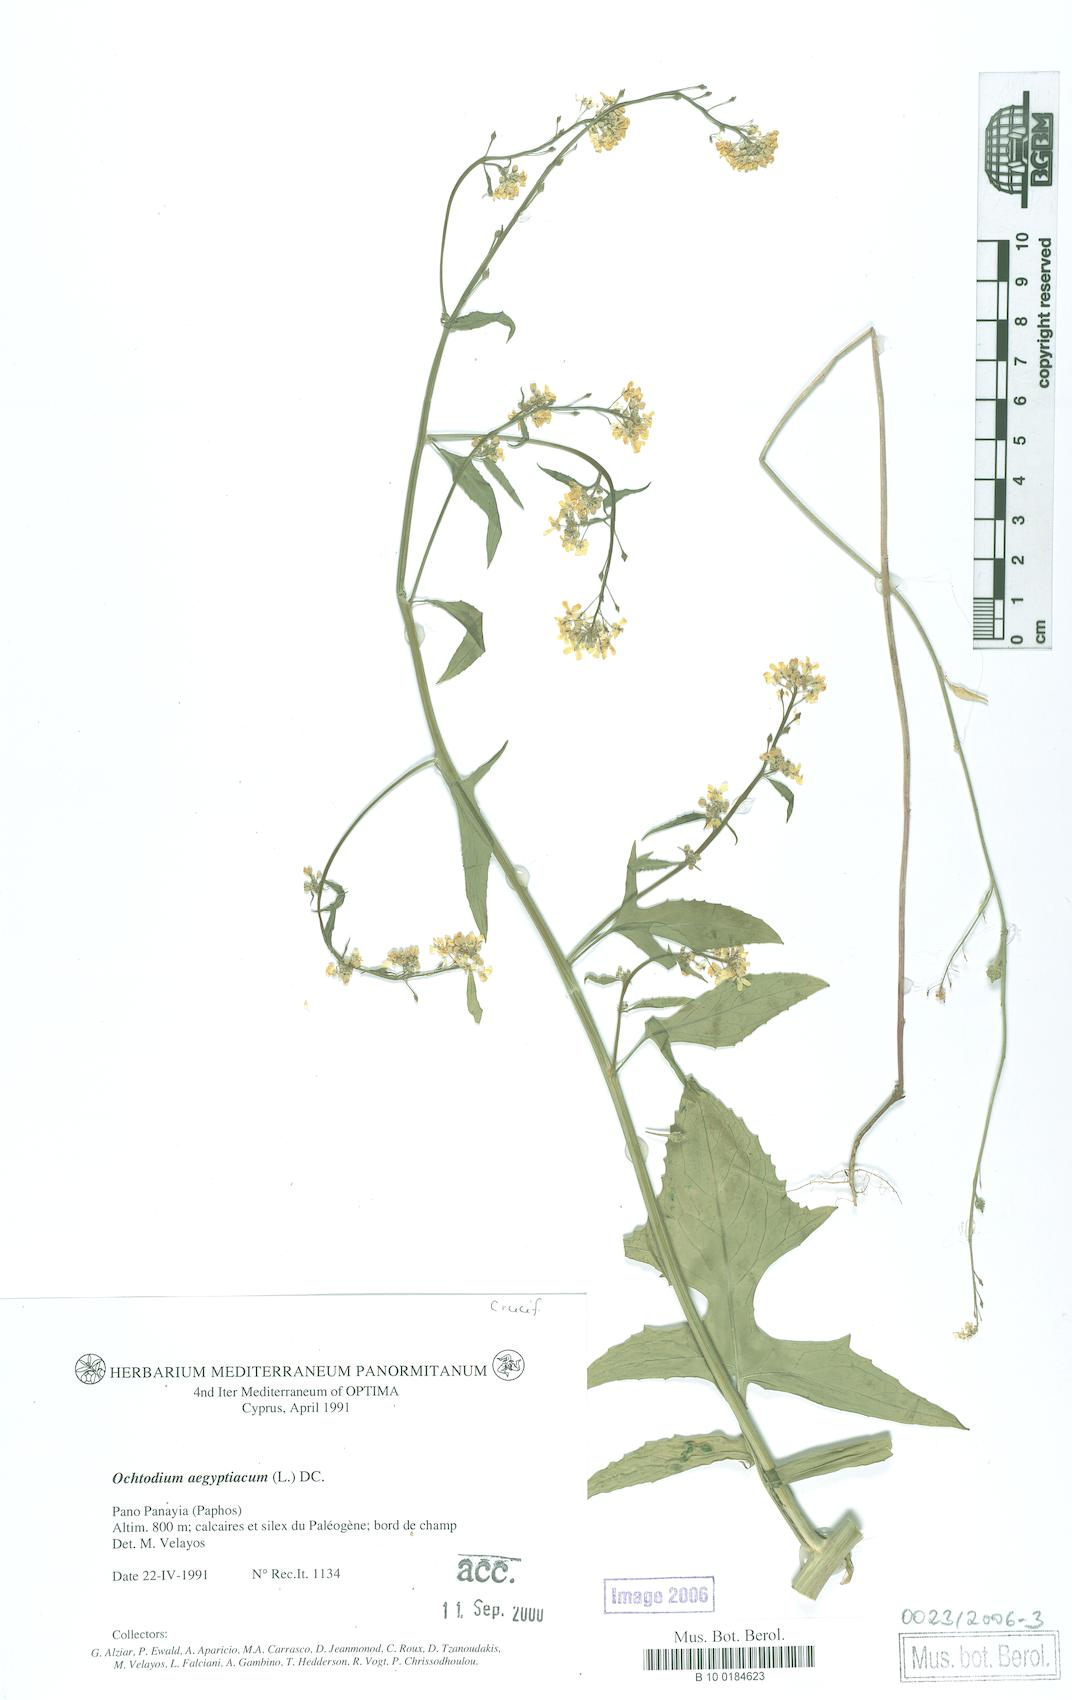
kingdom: Plantae
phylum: Tracheophyta
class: Magnoliopsida
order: Brassicales
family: Brassicaceae
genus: Ochthodium
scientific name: Ochthodium aegyptiacum
